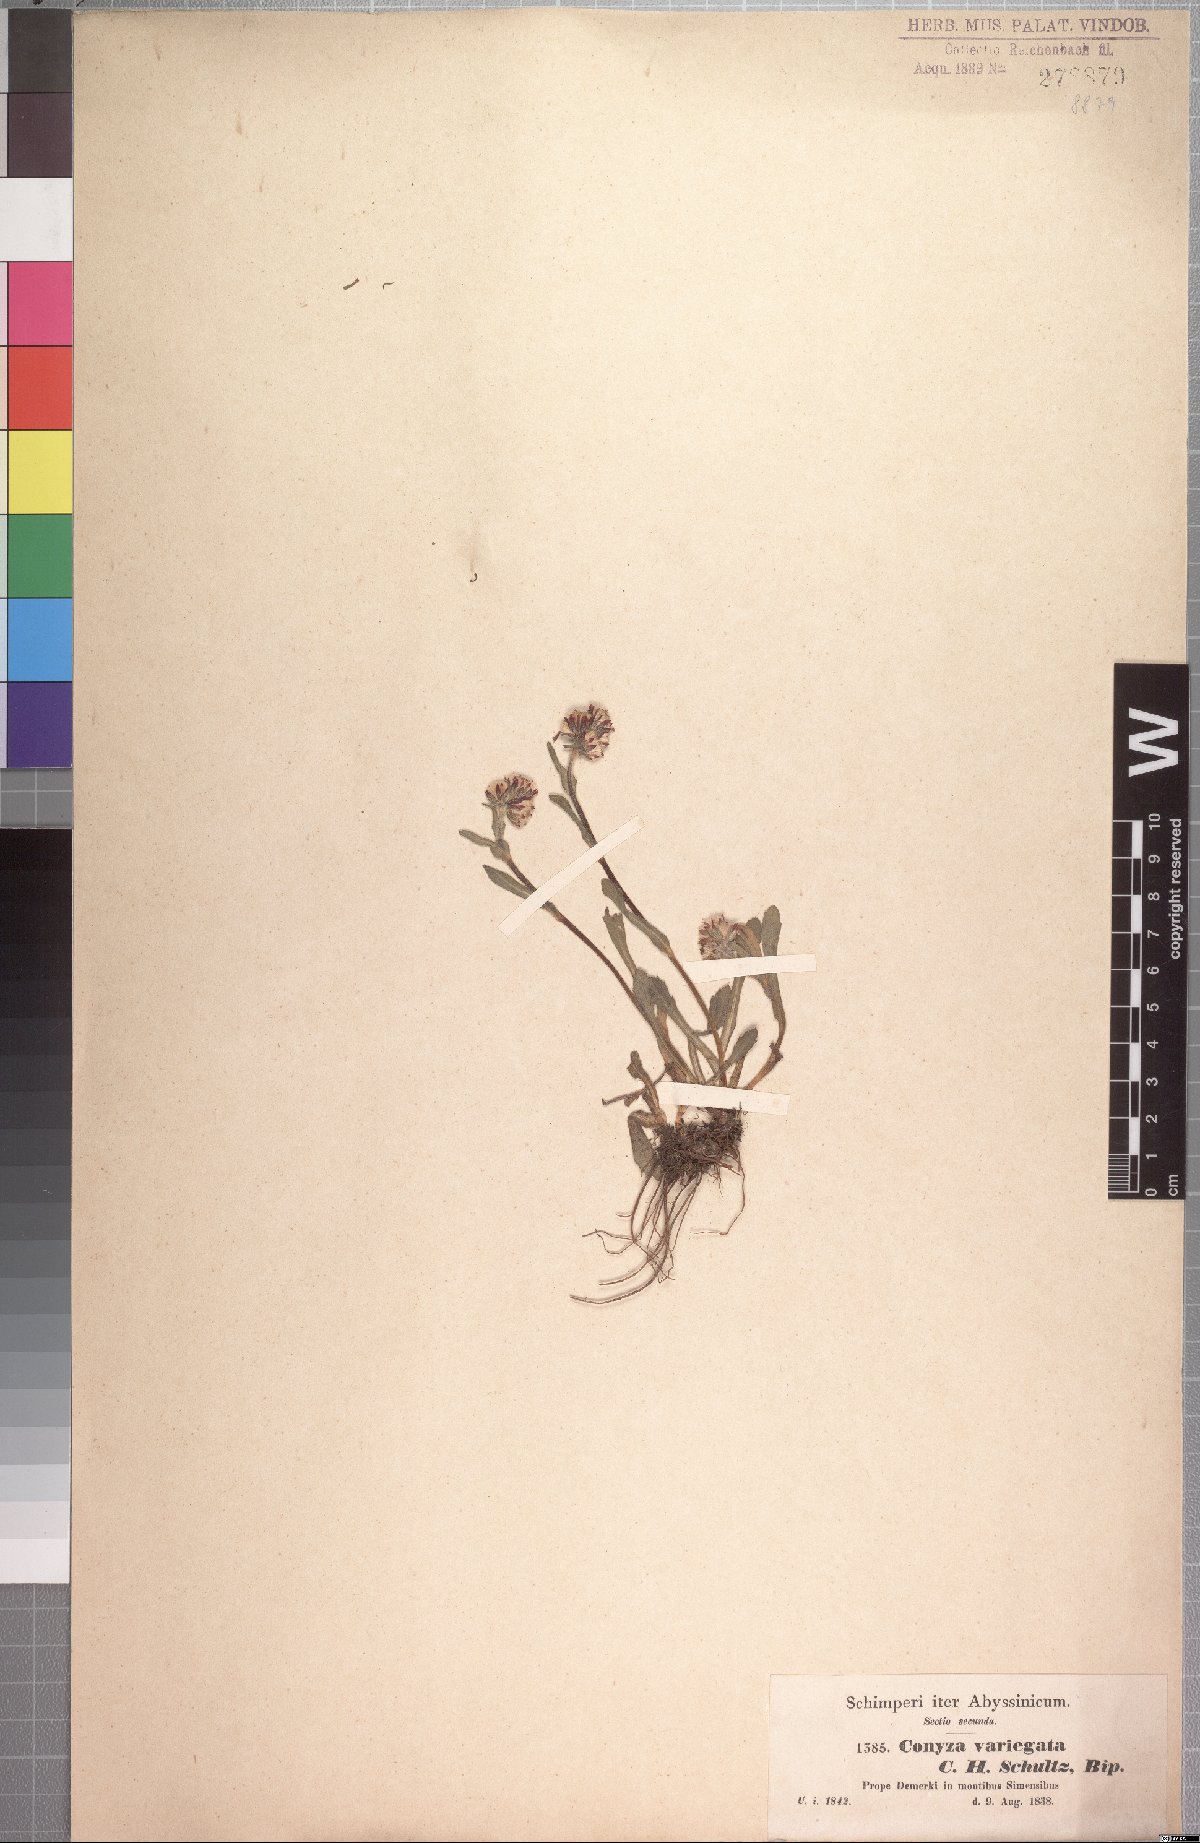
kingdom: Plantae
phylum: Tracheophyta
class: Magnoliopsida
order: Asterales
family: Asteraceae
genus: Conyza
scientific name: Conyza variegata
